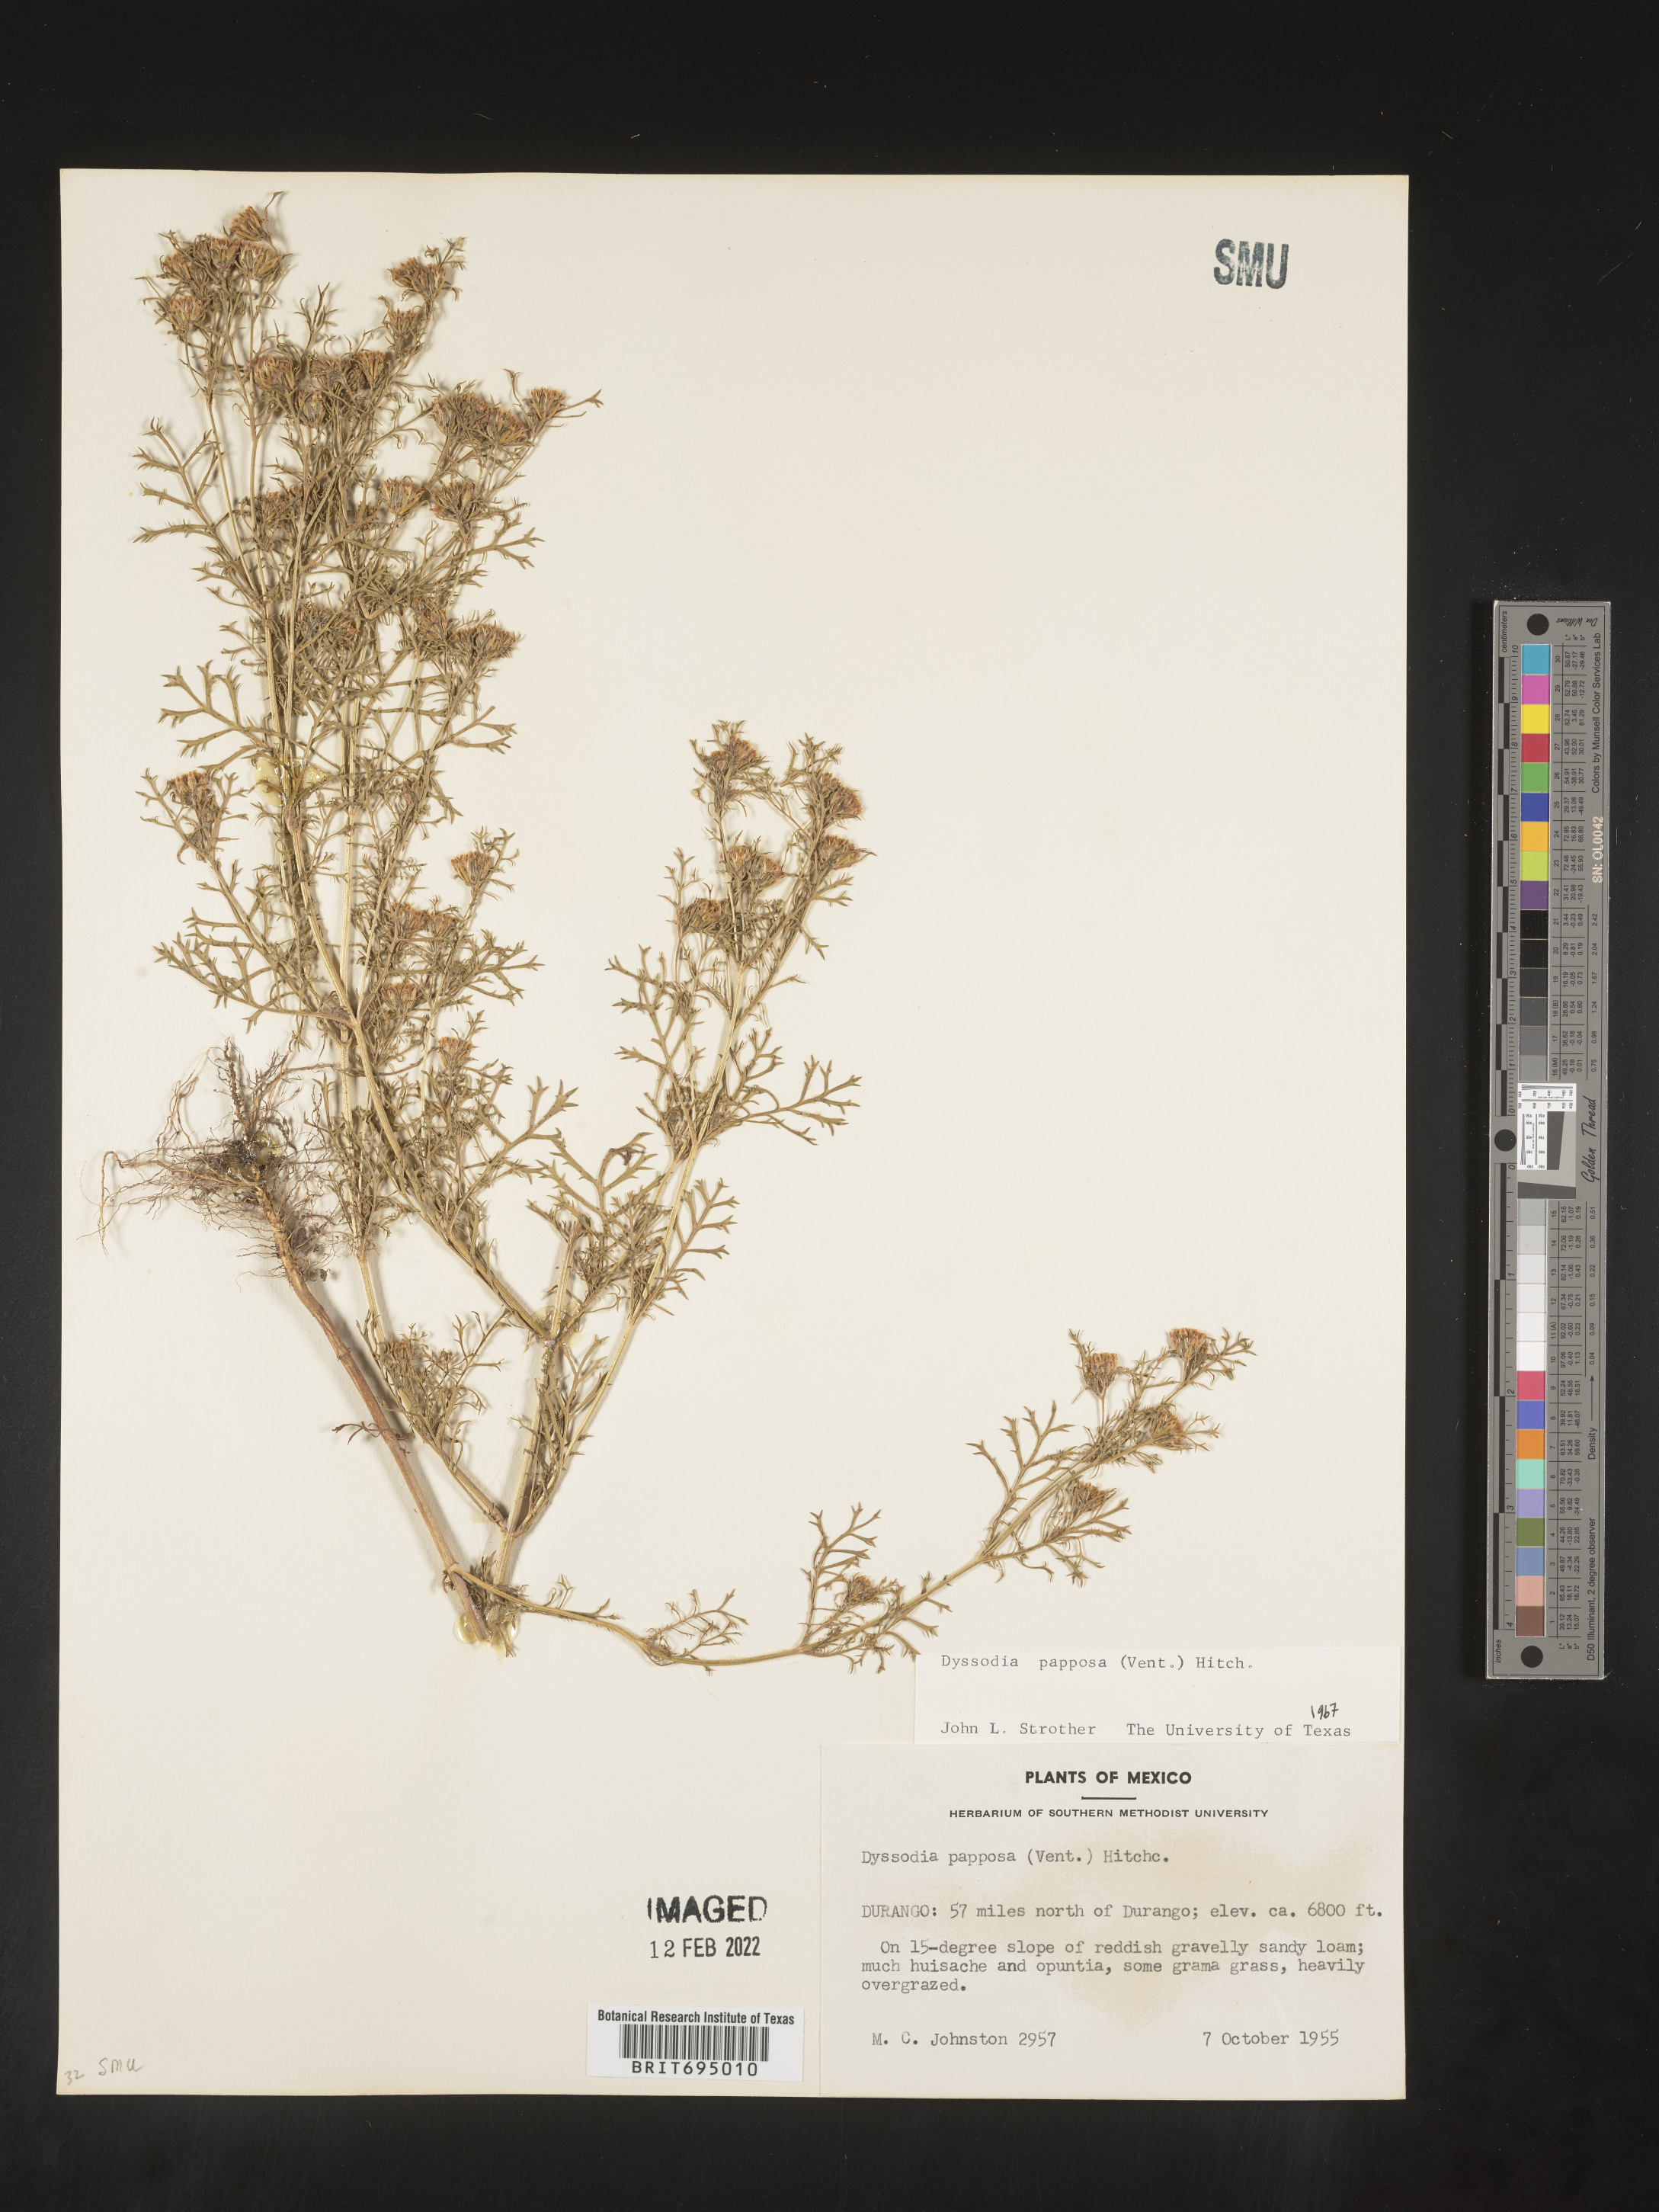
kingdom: Plantae
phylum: Tracheophyta
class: Magnoliopsida
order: Asterales
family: Asteraceae
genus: Dyssodia
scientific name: Dyssodia papposa
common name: Dogweed
